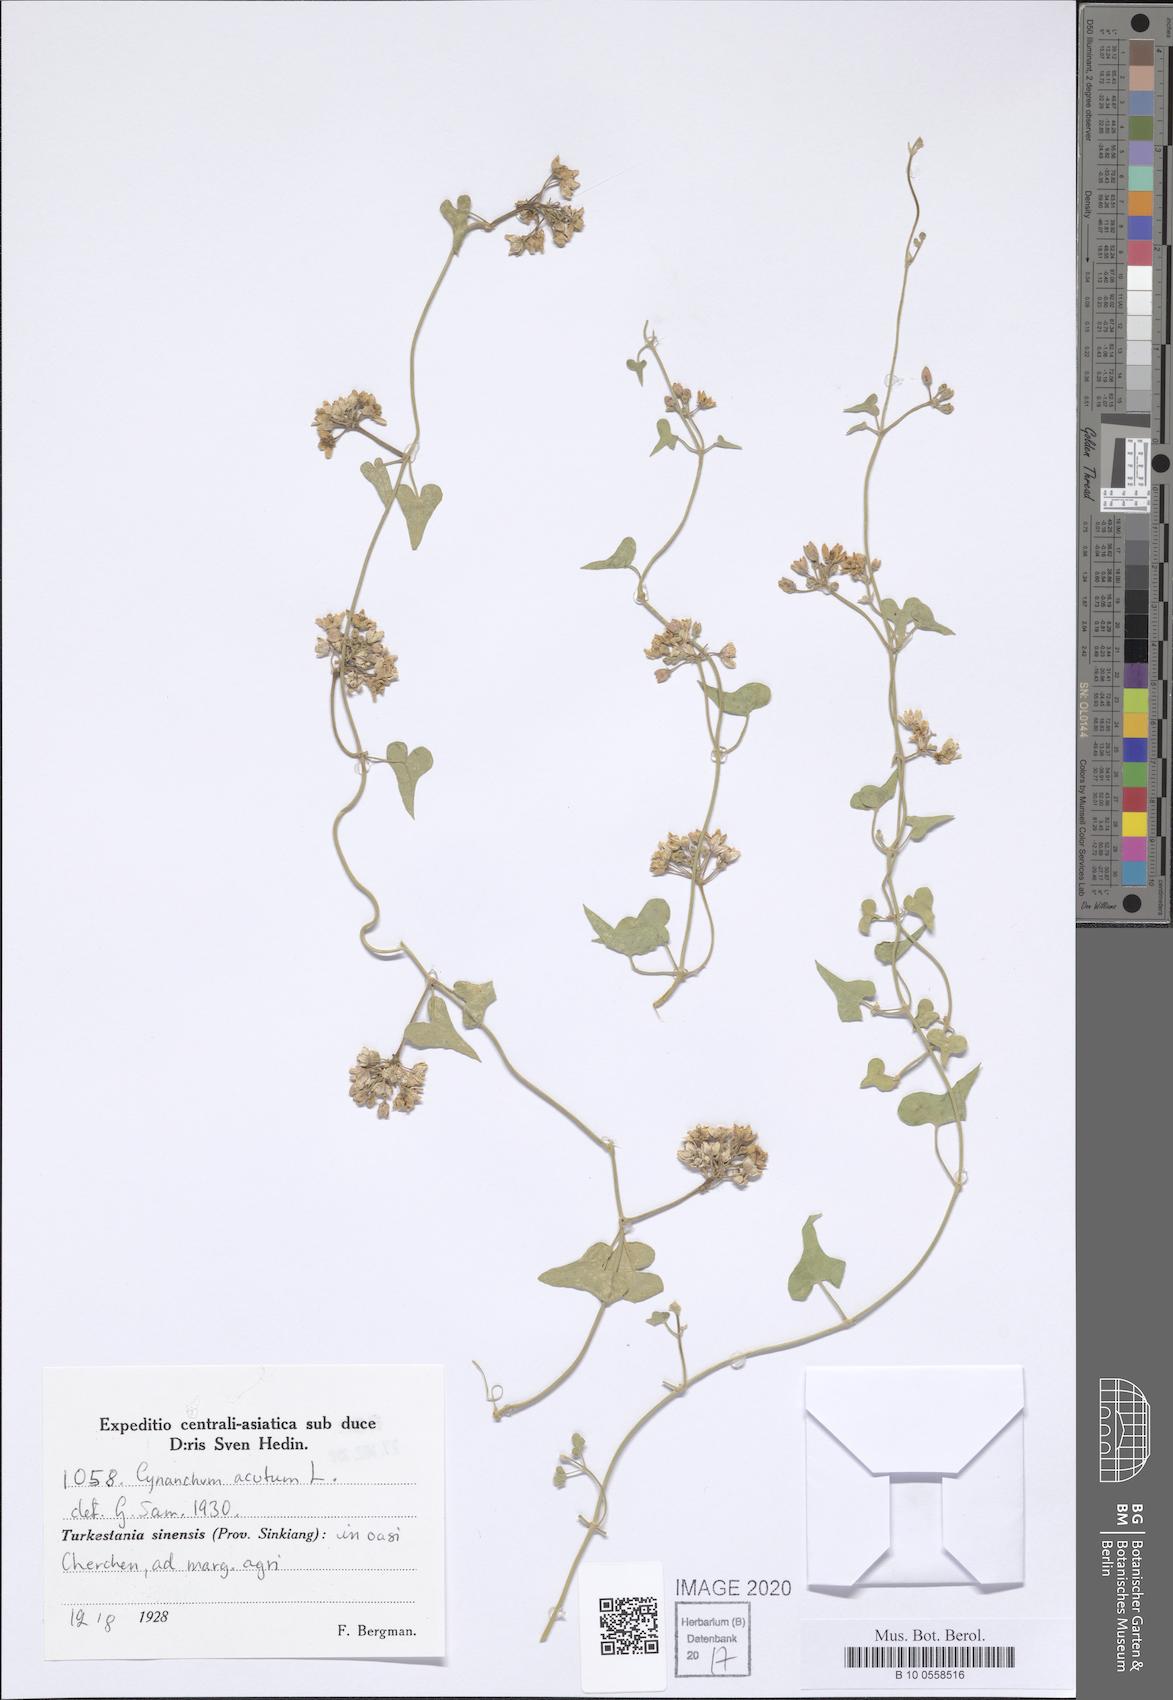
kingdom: Plantae
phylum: Tracheophyta
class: Magnoliopsida
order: Gentianales
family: Apocynaceae
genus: Cynanchum
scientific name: Cynanchum acutum
